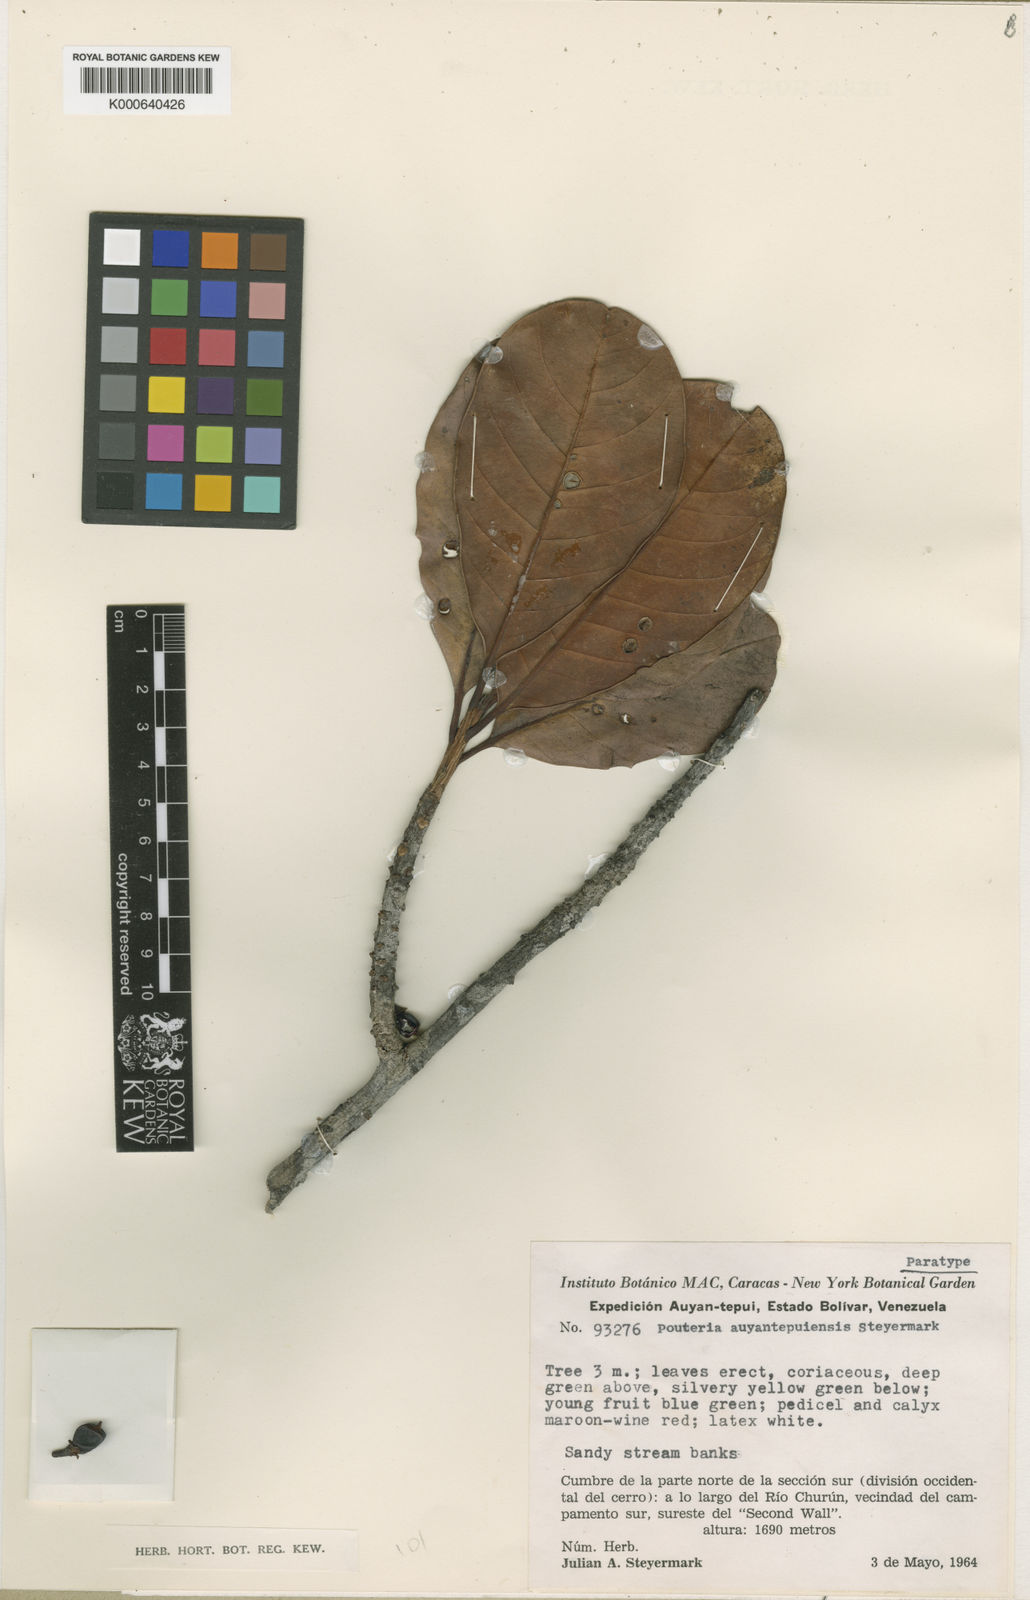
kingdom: Plantae
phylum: Tracheophyta
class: Magnoliopsida
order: Ericales
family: Sapotaceae
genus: Elaeoluma
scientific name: Elaeoluma
